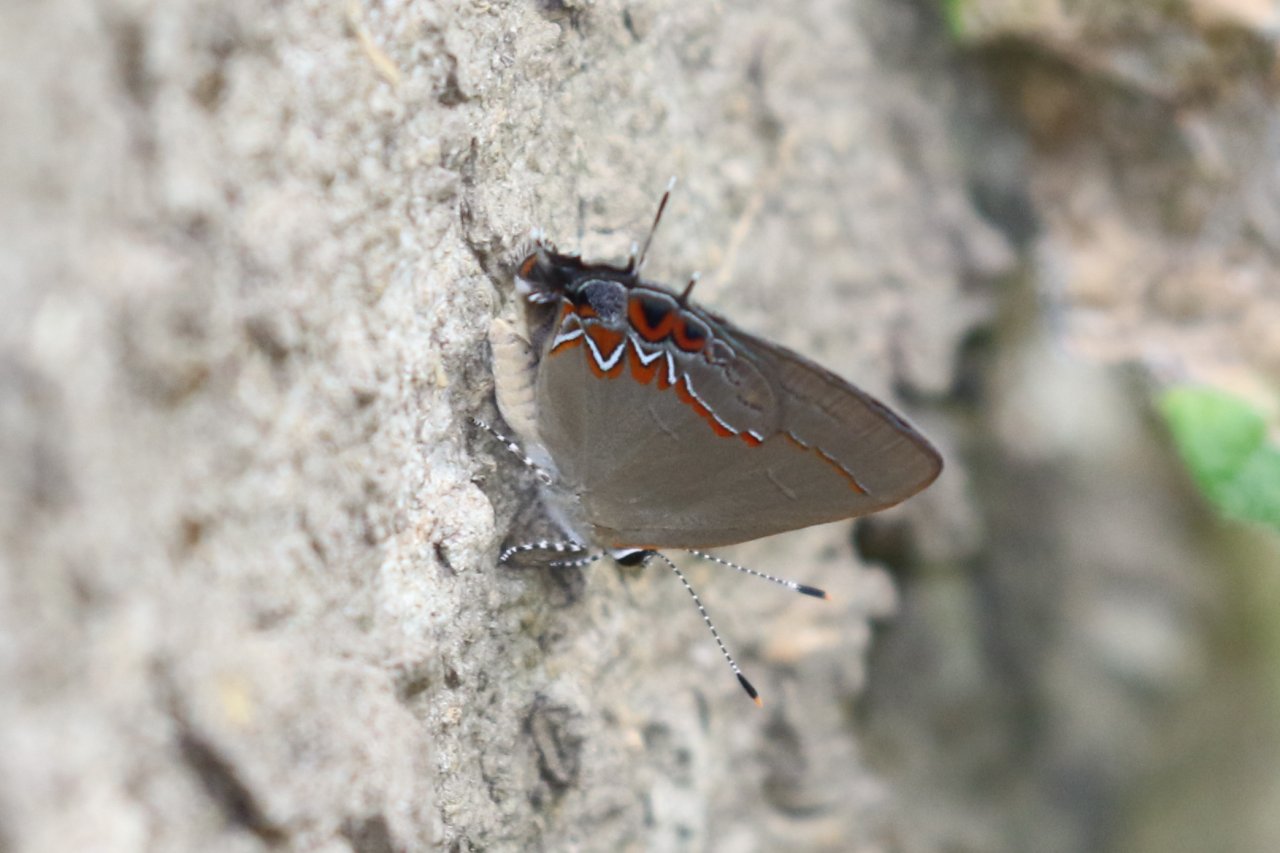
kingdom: Animalia
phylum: Arthropoda
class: Insecta
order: Lepidoptera
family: Lycaenidae
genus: Calycopis
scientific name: Calycopis isobeon
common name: Dusky-blue Groundstreak
